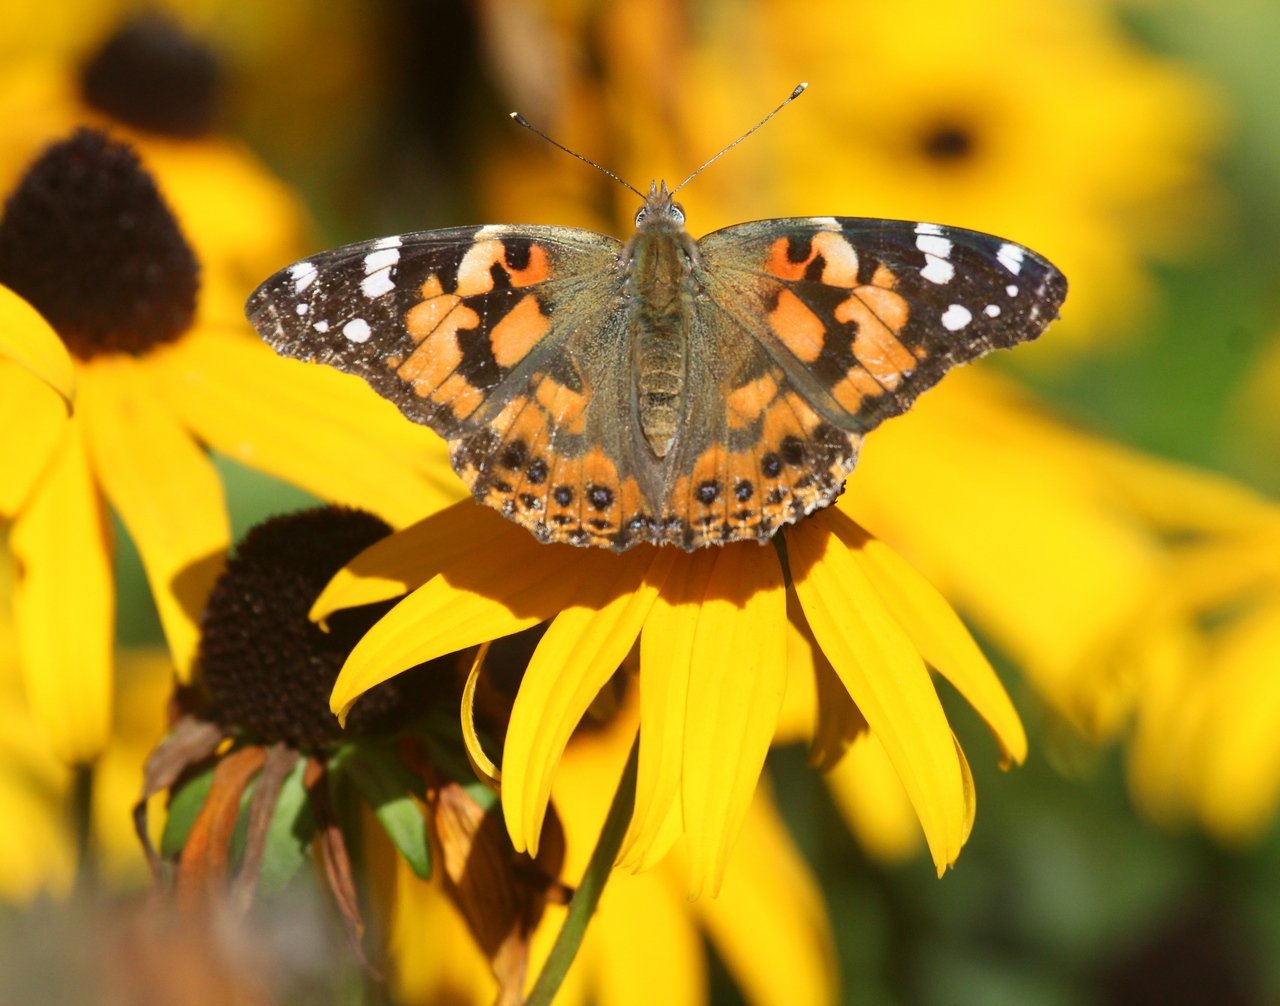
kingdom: Animalia
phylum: Arthropoda
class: Insecta
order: Lepidoptera
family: Nymphalidae
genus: Vanessa
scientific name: Vanessa cardui
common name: Painted Lady
